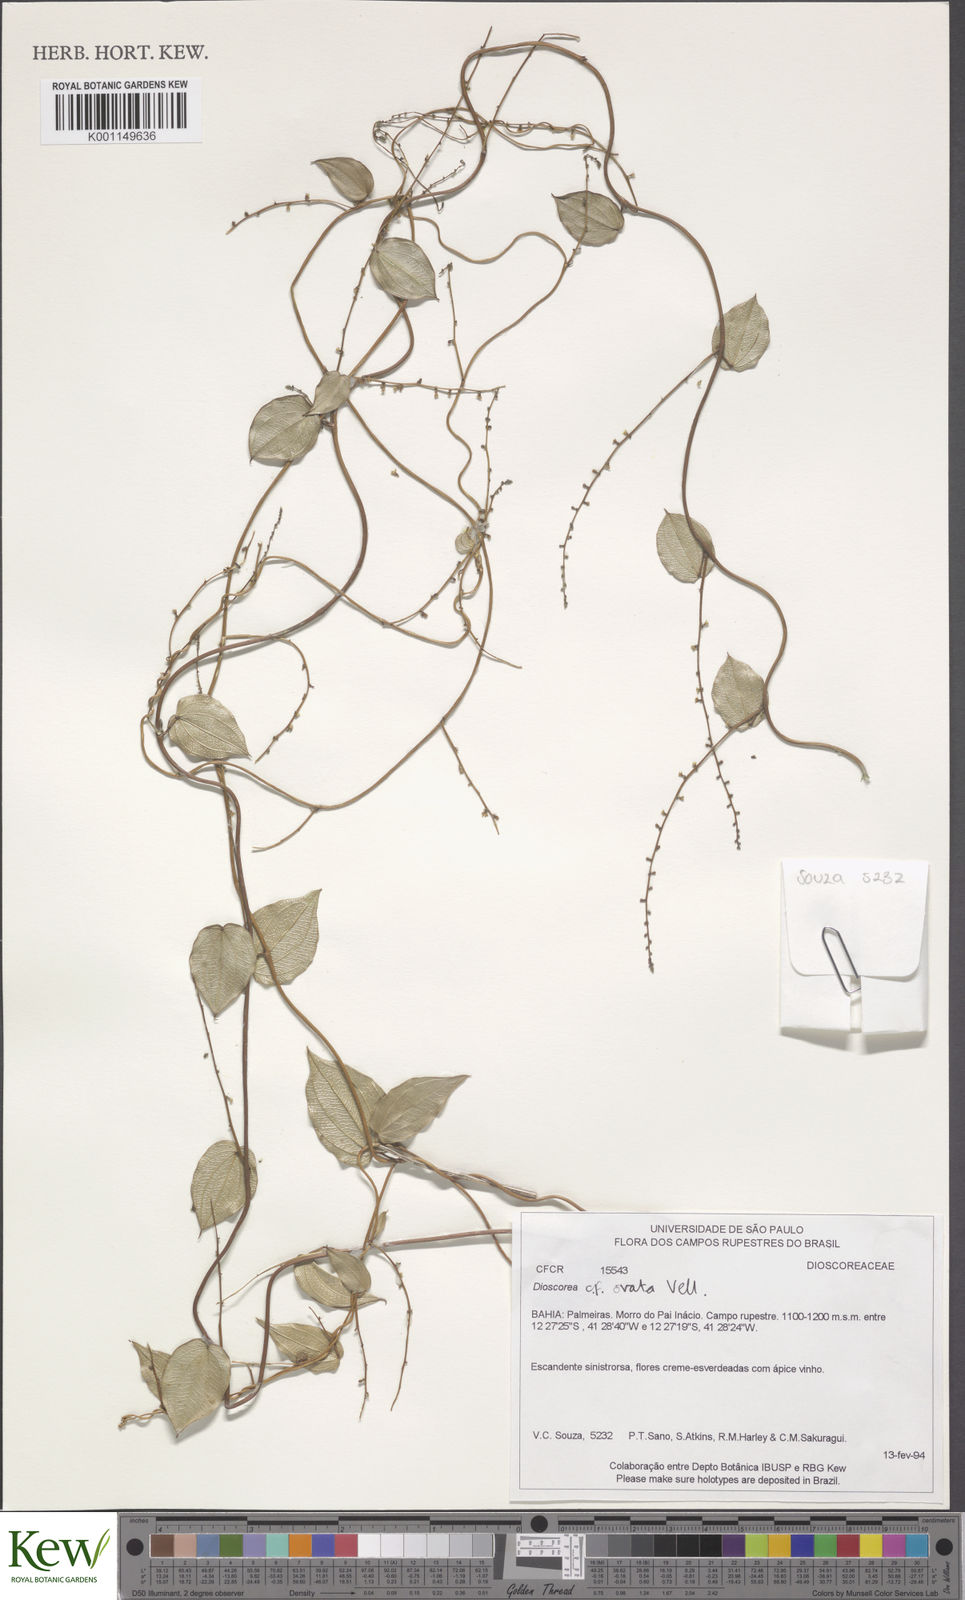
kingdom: Plantae
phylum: Tracheophyta
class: Liliopsida
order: Dioscoreales
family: Dioscoreaceae
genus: Dioscorea
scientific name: Dioscorea sincorensis
